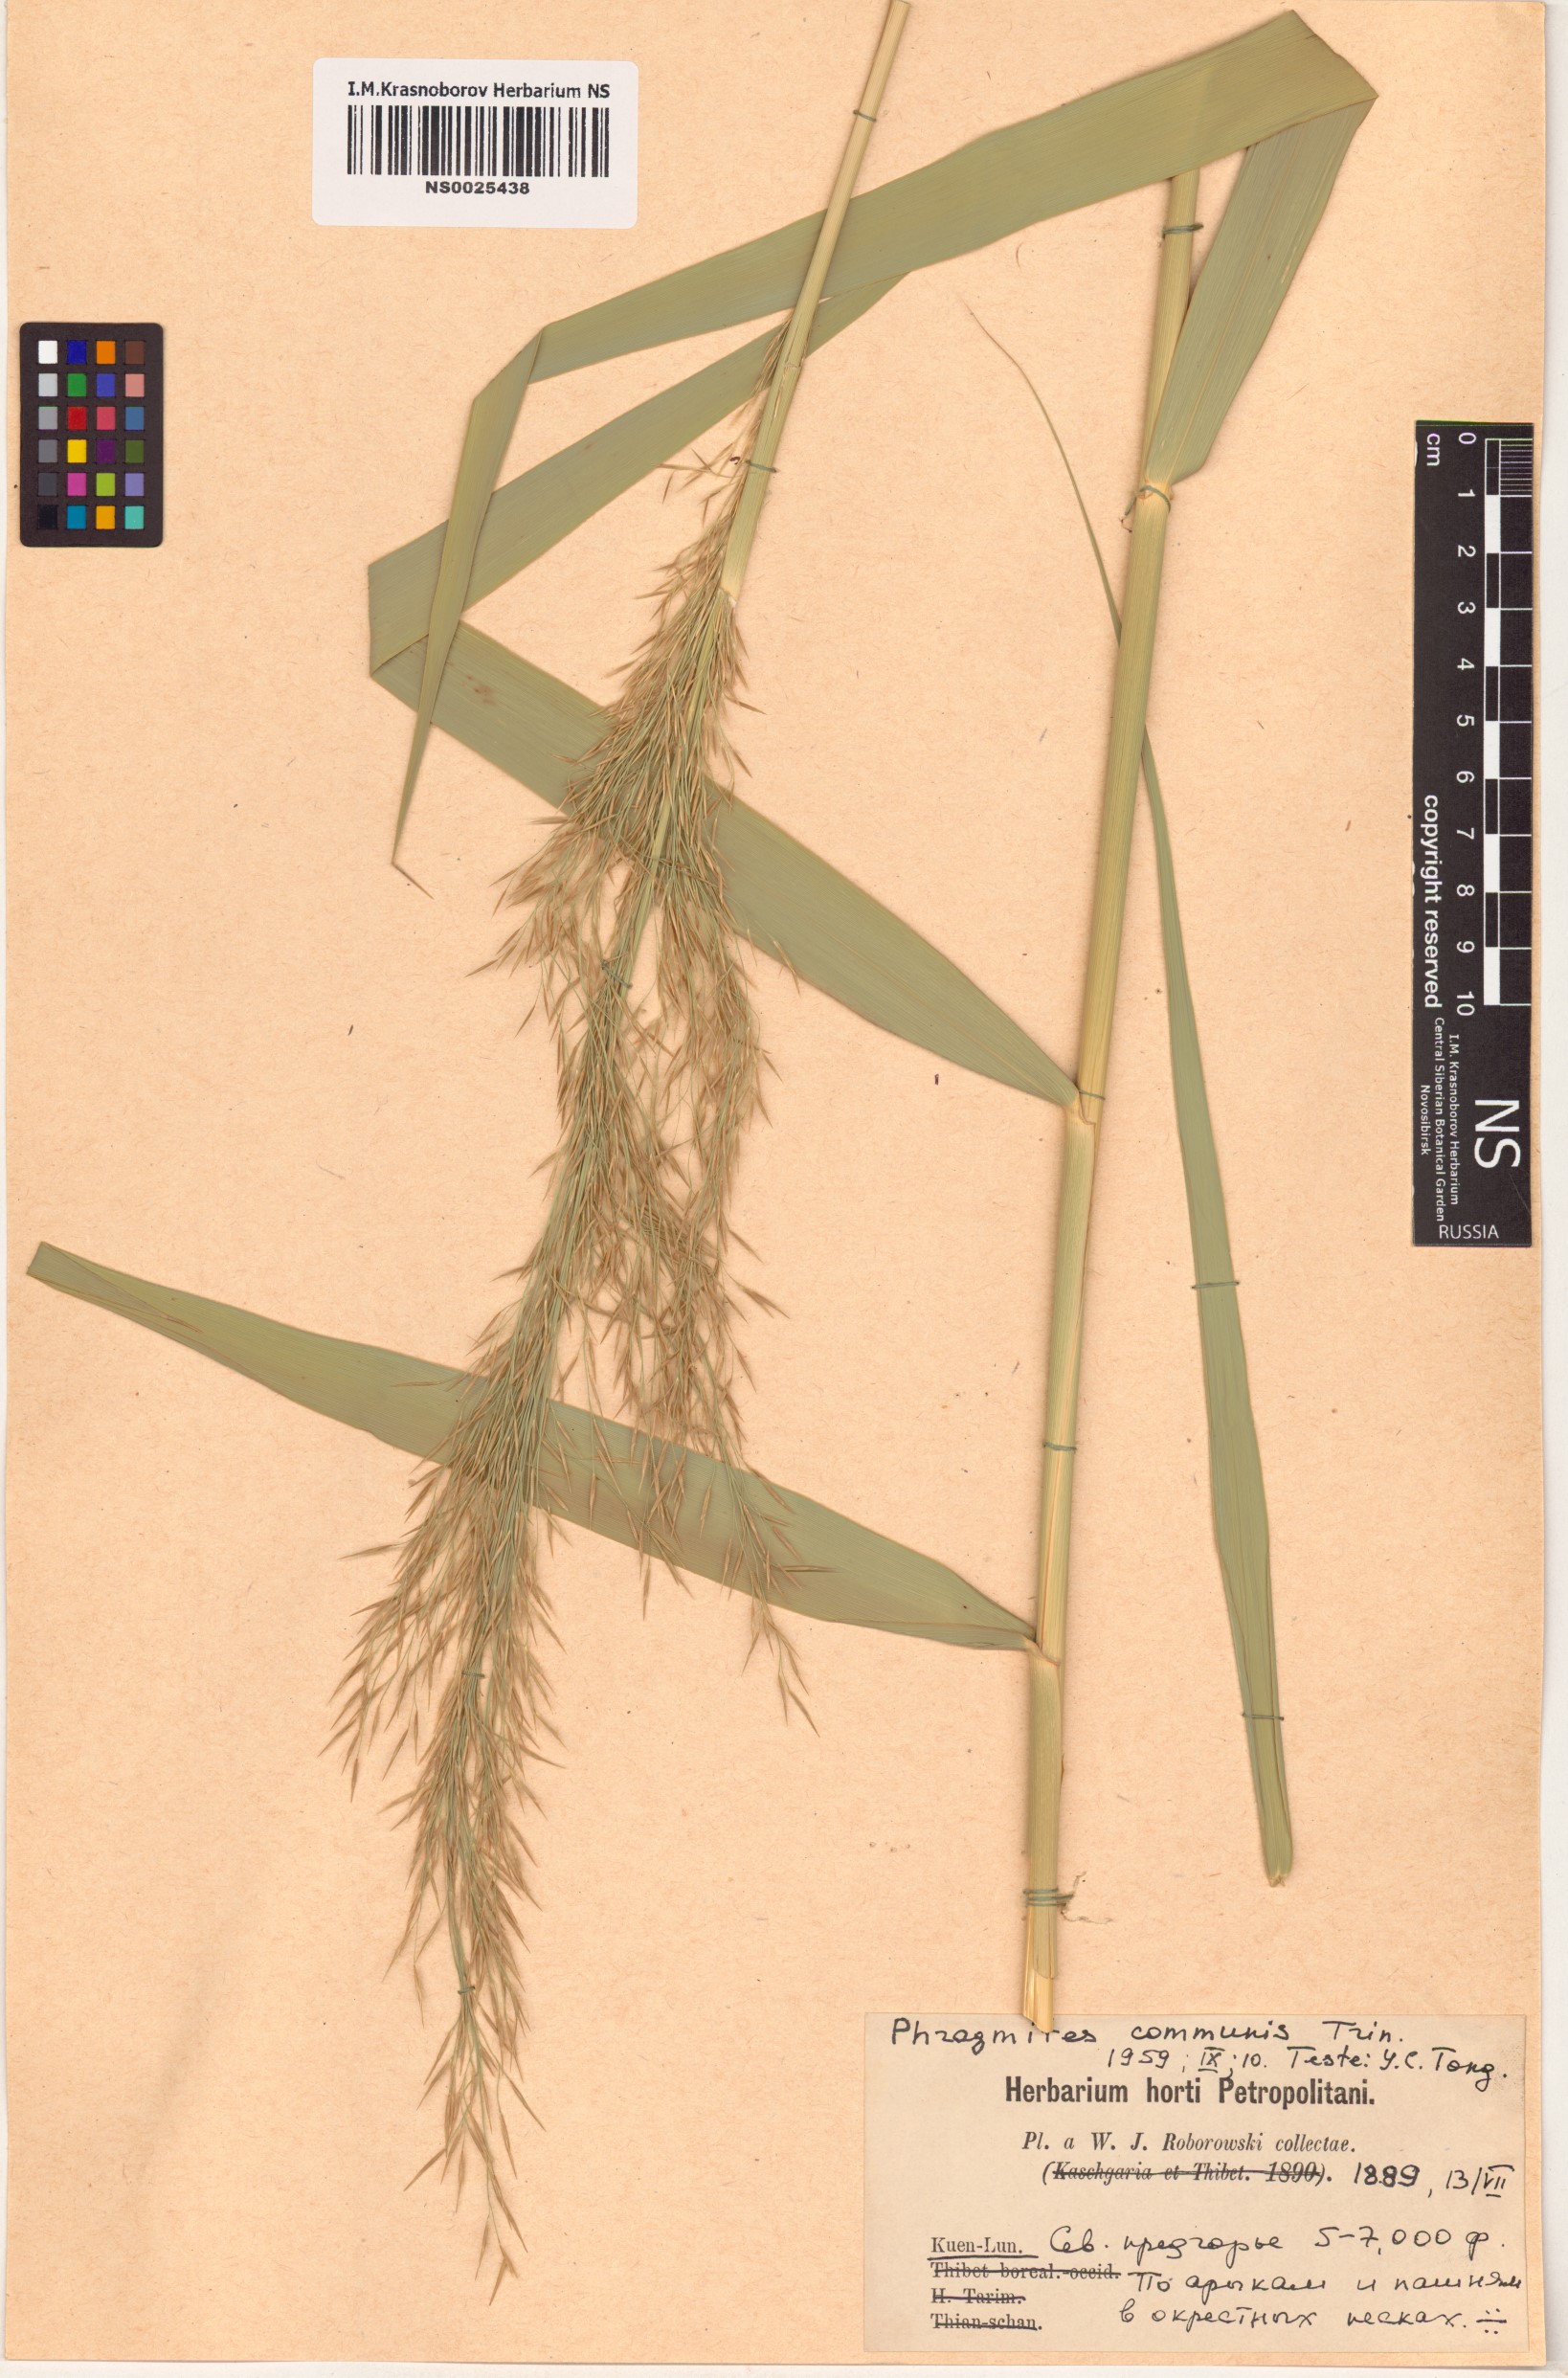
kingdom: Plantae
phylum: Tracheophyta
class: Liliopsida
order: Poales
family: Poaceae
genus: Phragmites
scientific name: Phragmites australis
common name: Common reed
